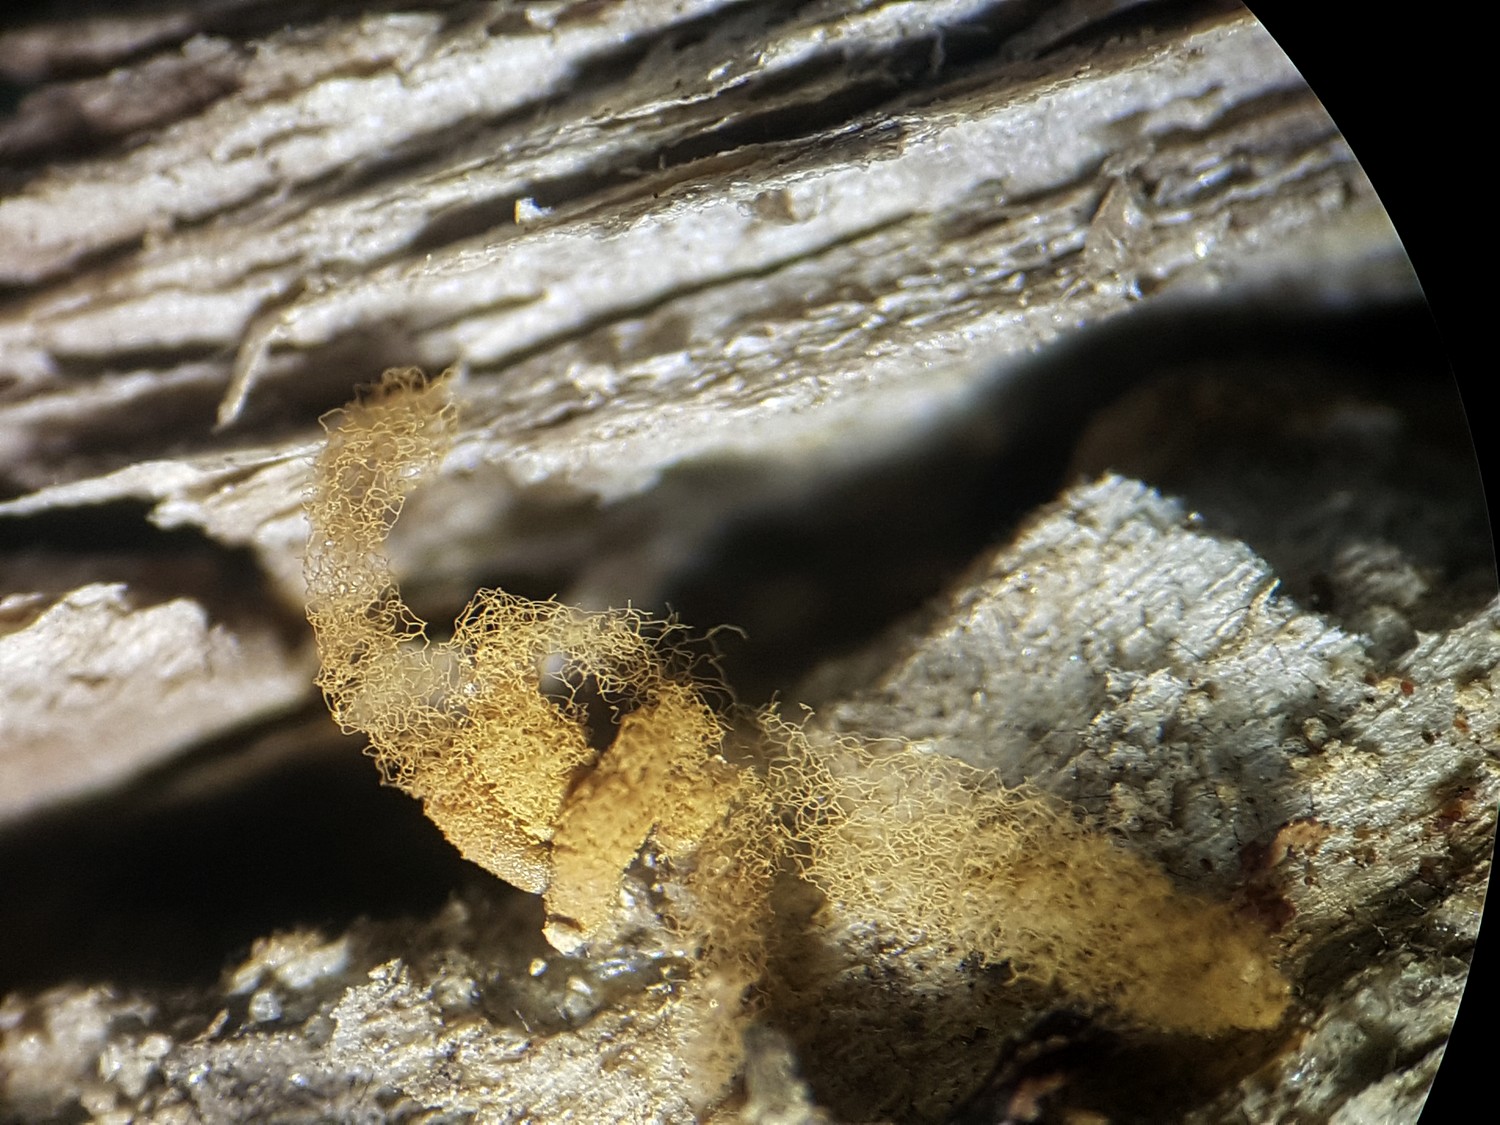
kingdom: Protozoa
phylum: Mycetozoa
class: Myxomycetes
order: Trichiales
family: Arcyriaceae
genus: Arcyria
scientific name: Arcyria obvelata
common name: okkergul skålsvøb
